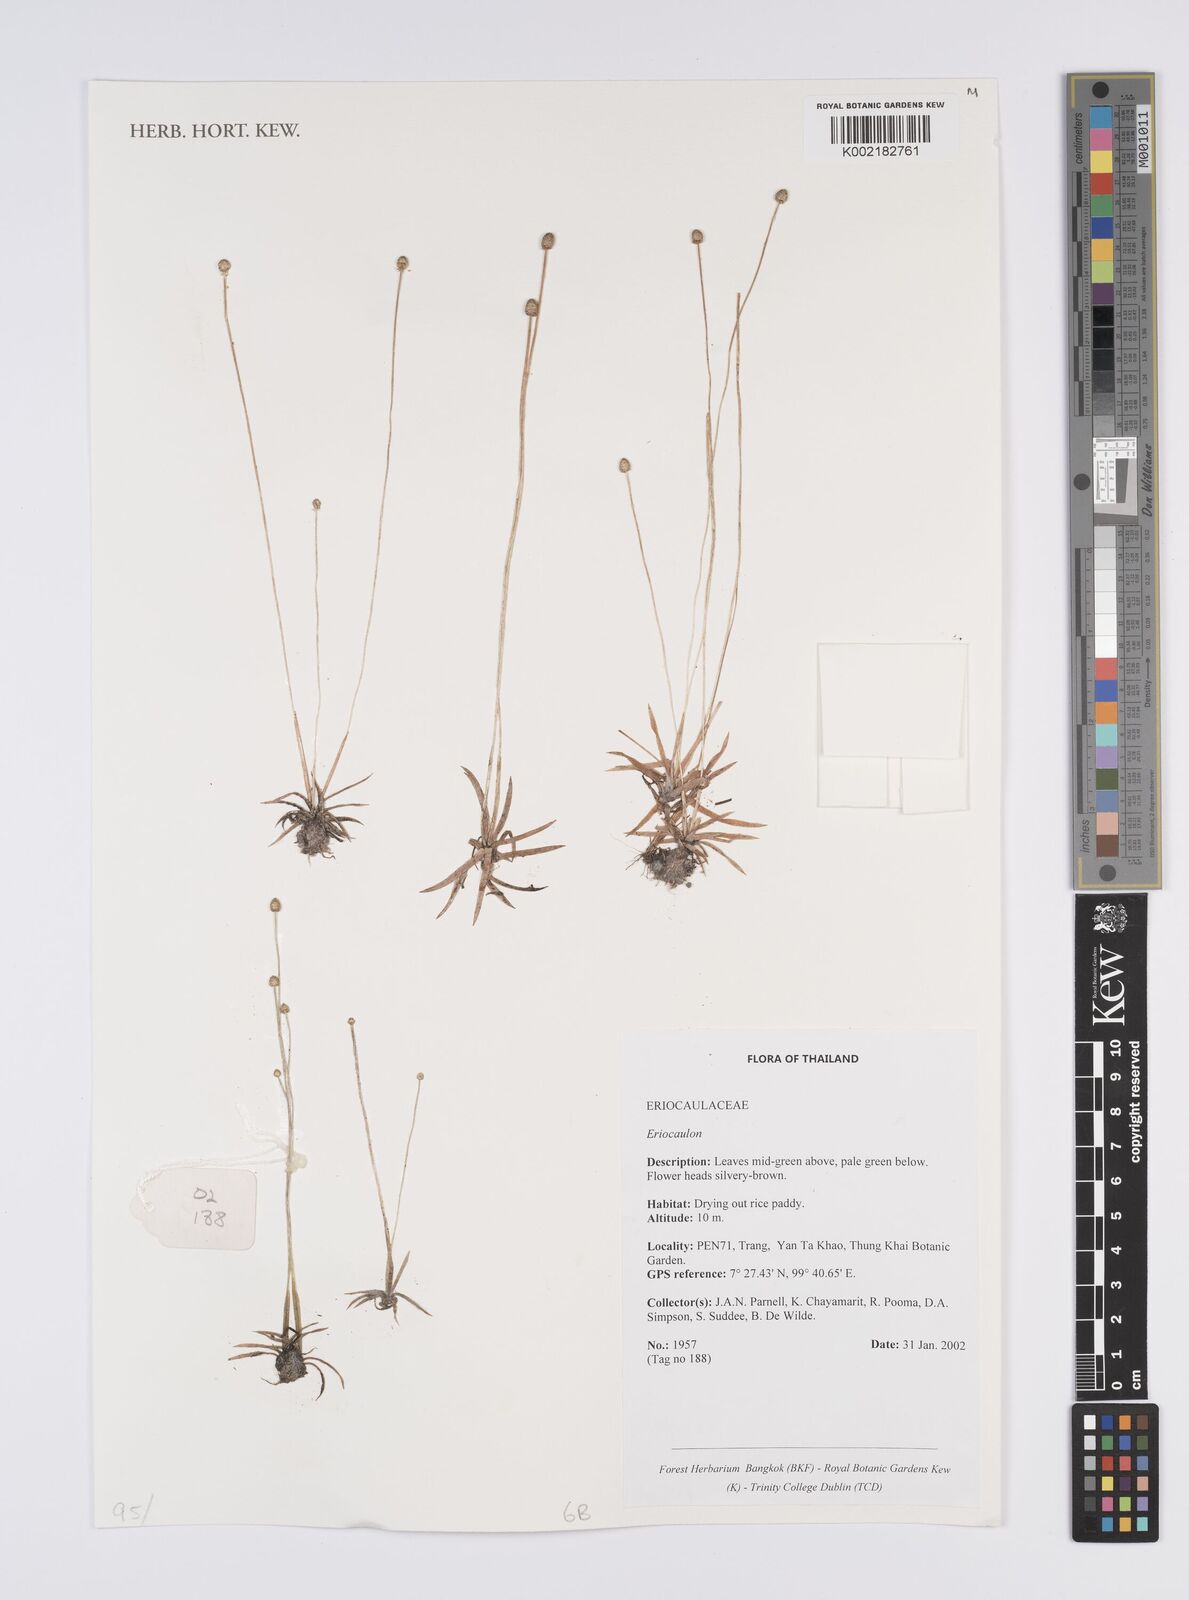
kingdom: Plantae
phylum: Tracheophyta
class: Liliopsida
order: Poales
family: Eriocaulaceae
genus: Eriocaulon
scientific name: Eriocaulon
